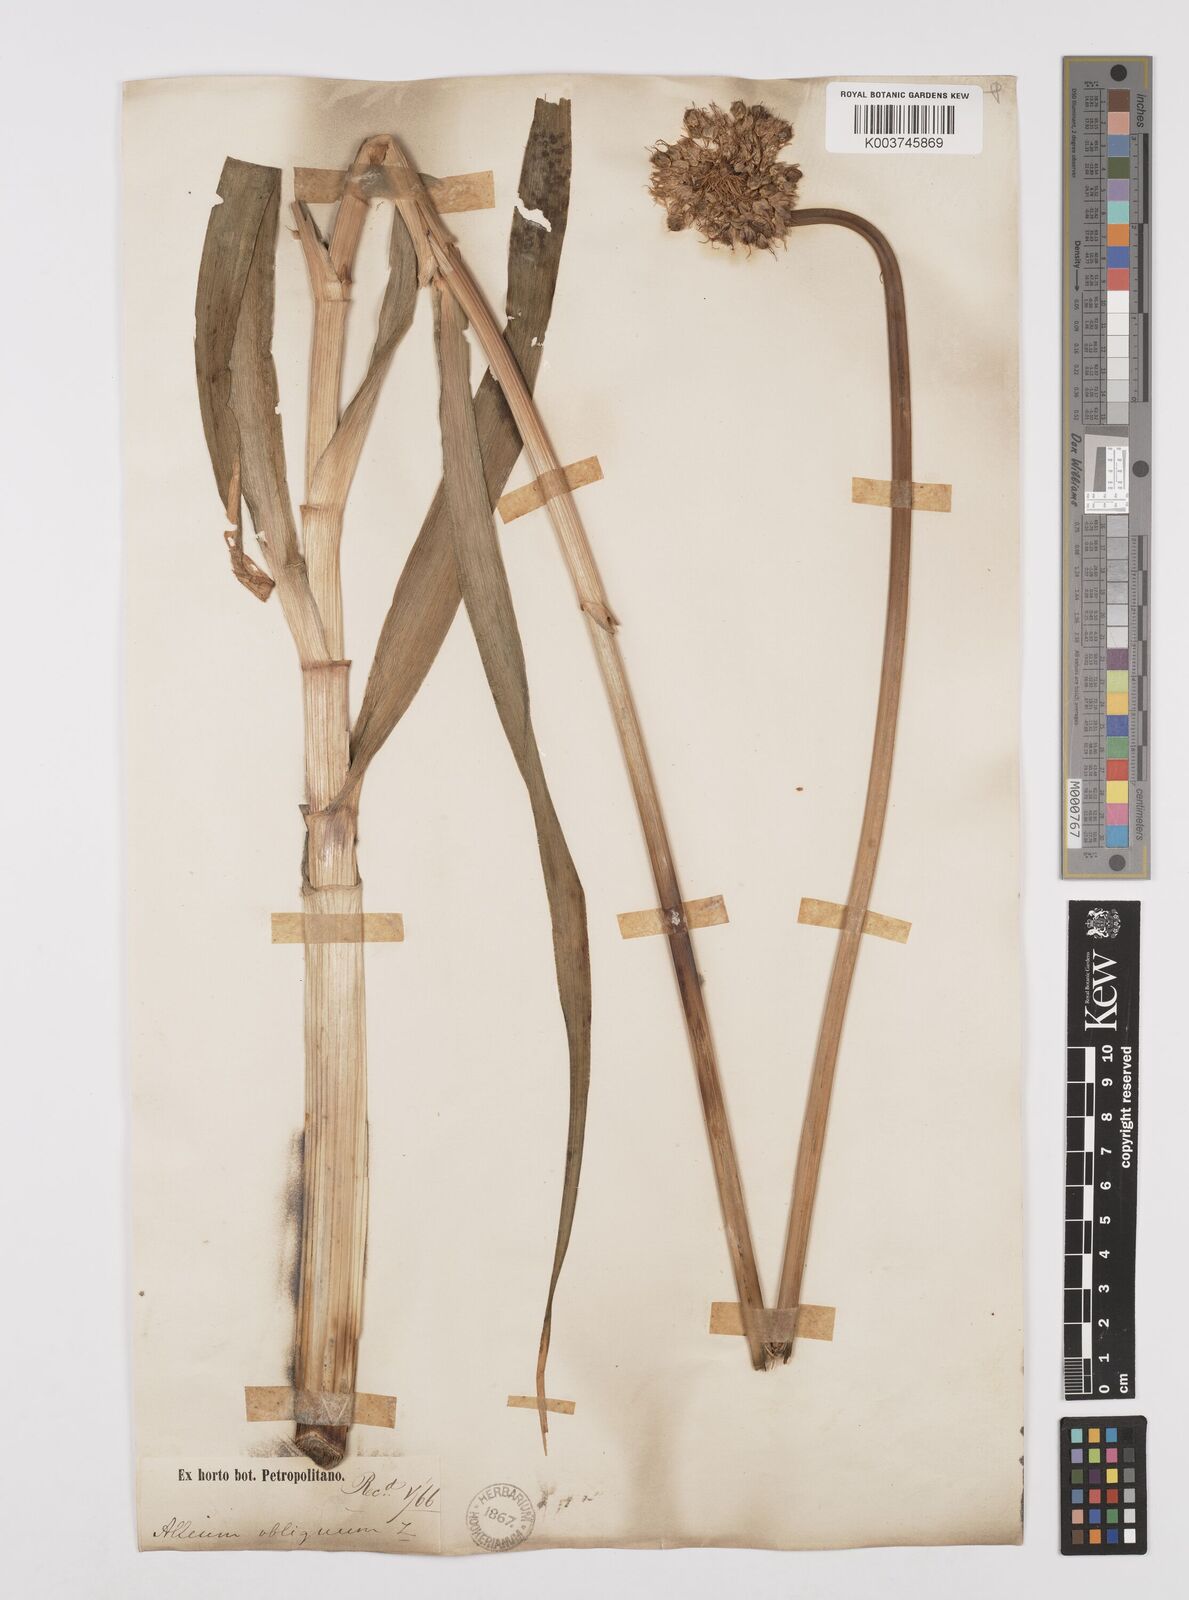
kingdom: Plantae
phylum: Tracheophyta
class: Liliopsida
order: Asparagales
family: Amaryllidaceae
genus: Allium
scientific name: Allium obliquum
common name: Oblique onion
